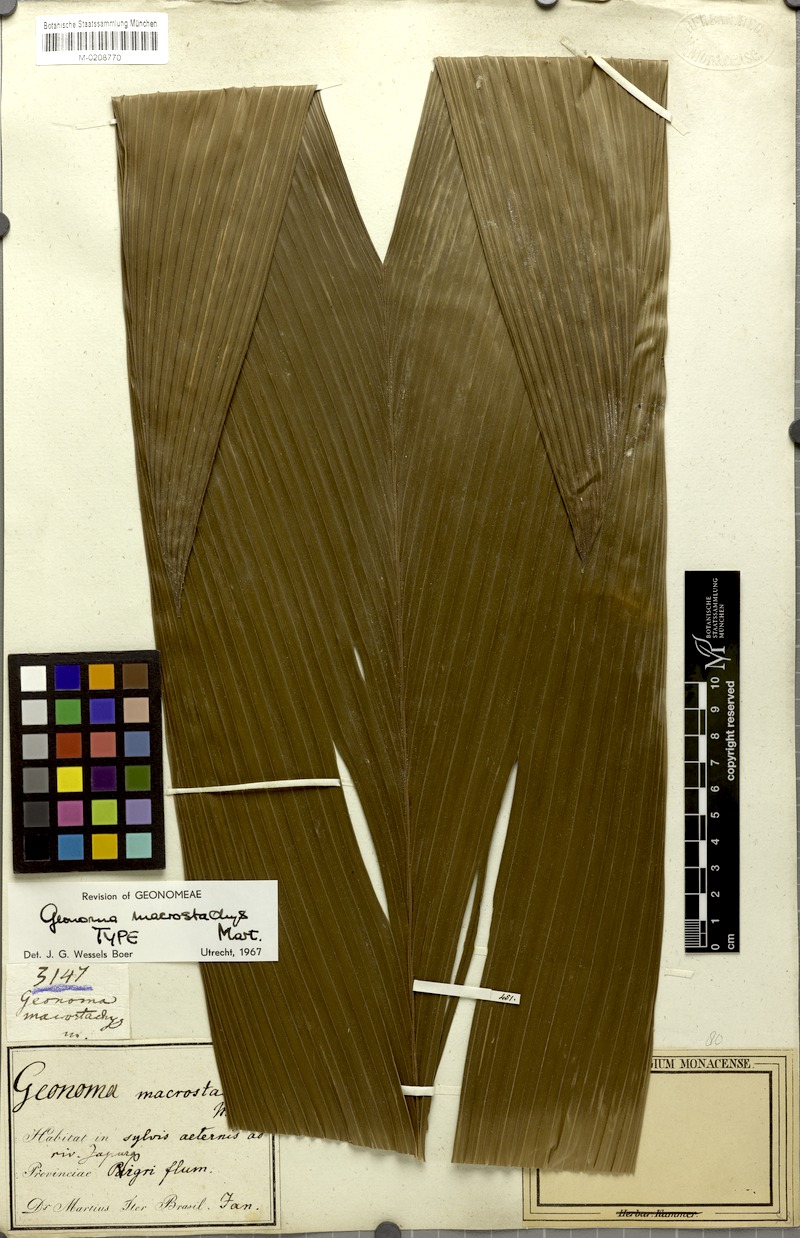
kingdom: Plantae
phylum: Tracheophyta
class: Liliopsida
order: Arecales
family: Arecaceae
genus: Geonoma
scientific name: Geonoma macrostachys
